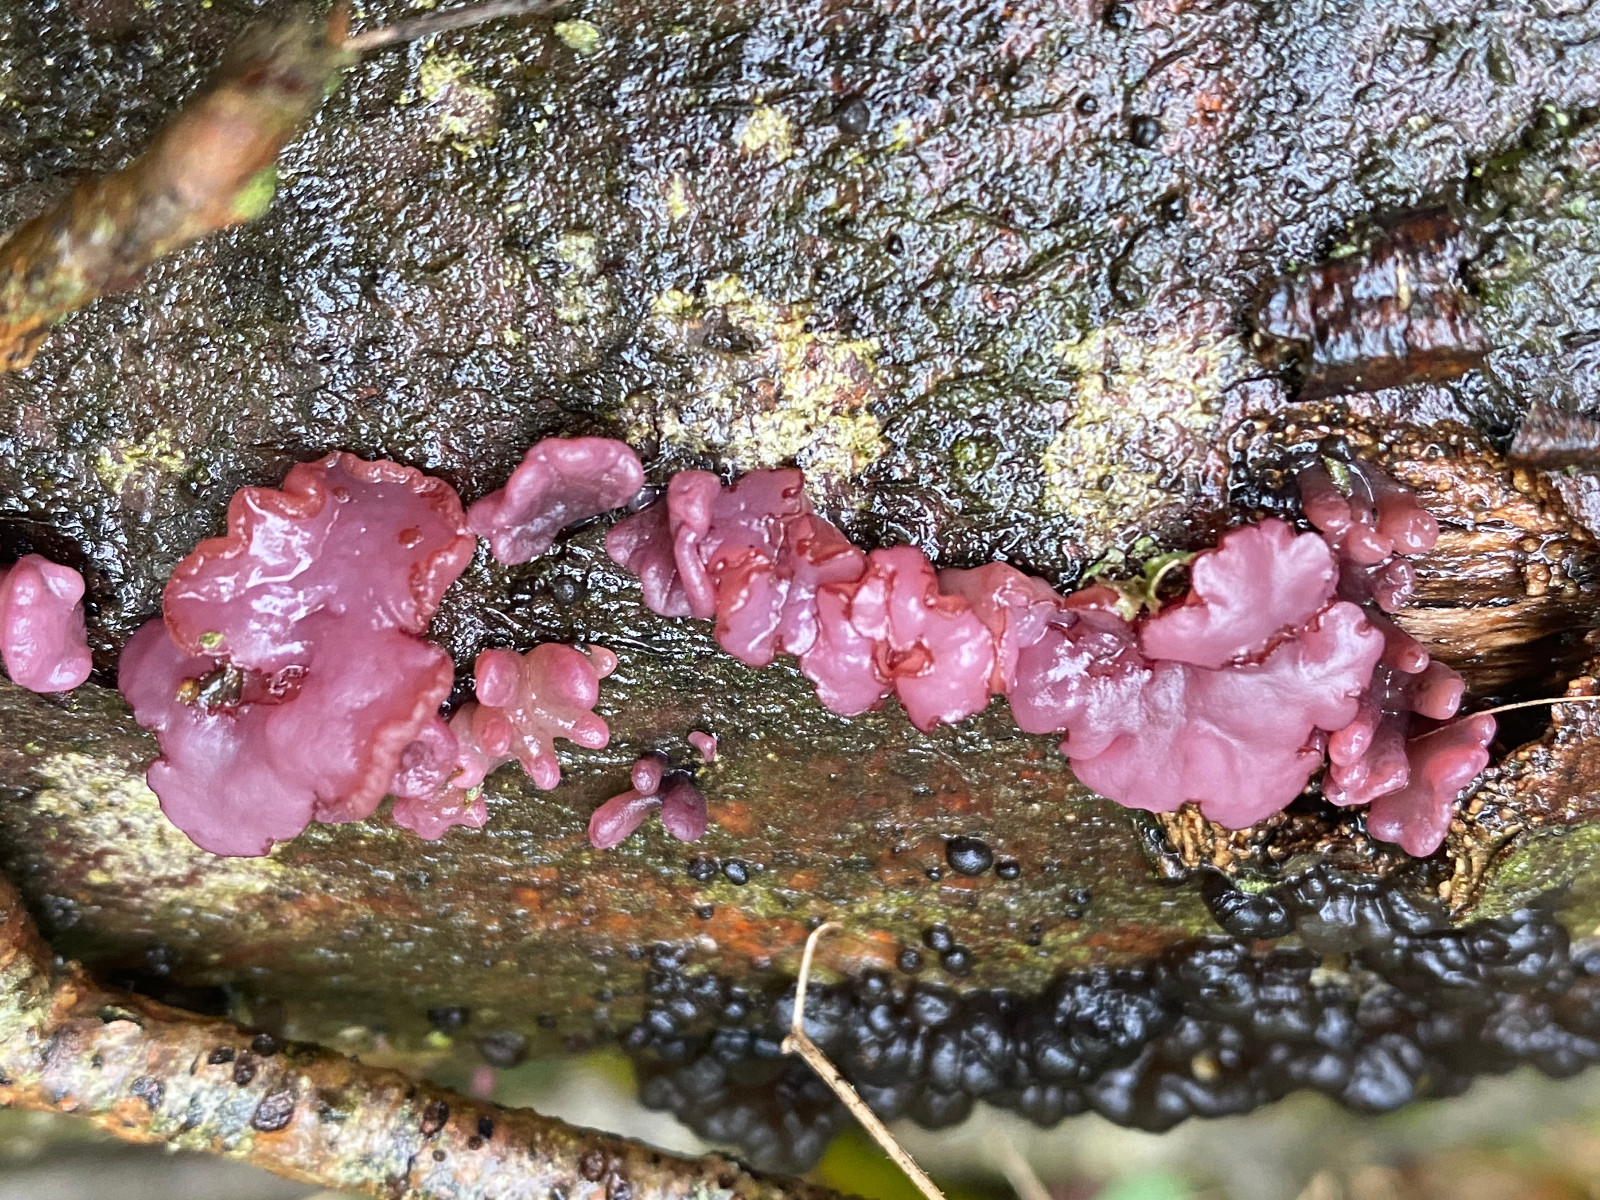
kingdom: Fungi
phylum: Ascomycota
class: Leotiomycetes
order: Helotiales
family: Gelatinodiscaceae
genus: Ascocoryne
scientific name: Ascocoryne sarcoides
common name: rødlilla sejskive
